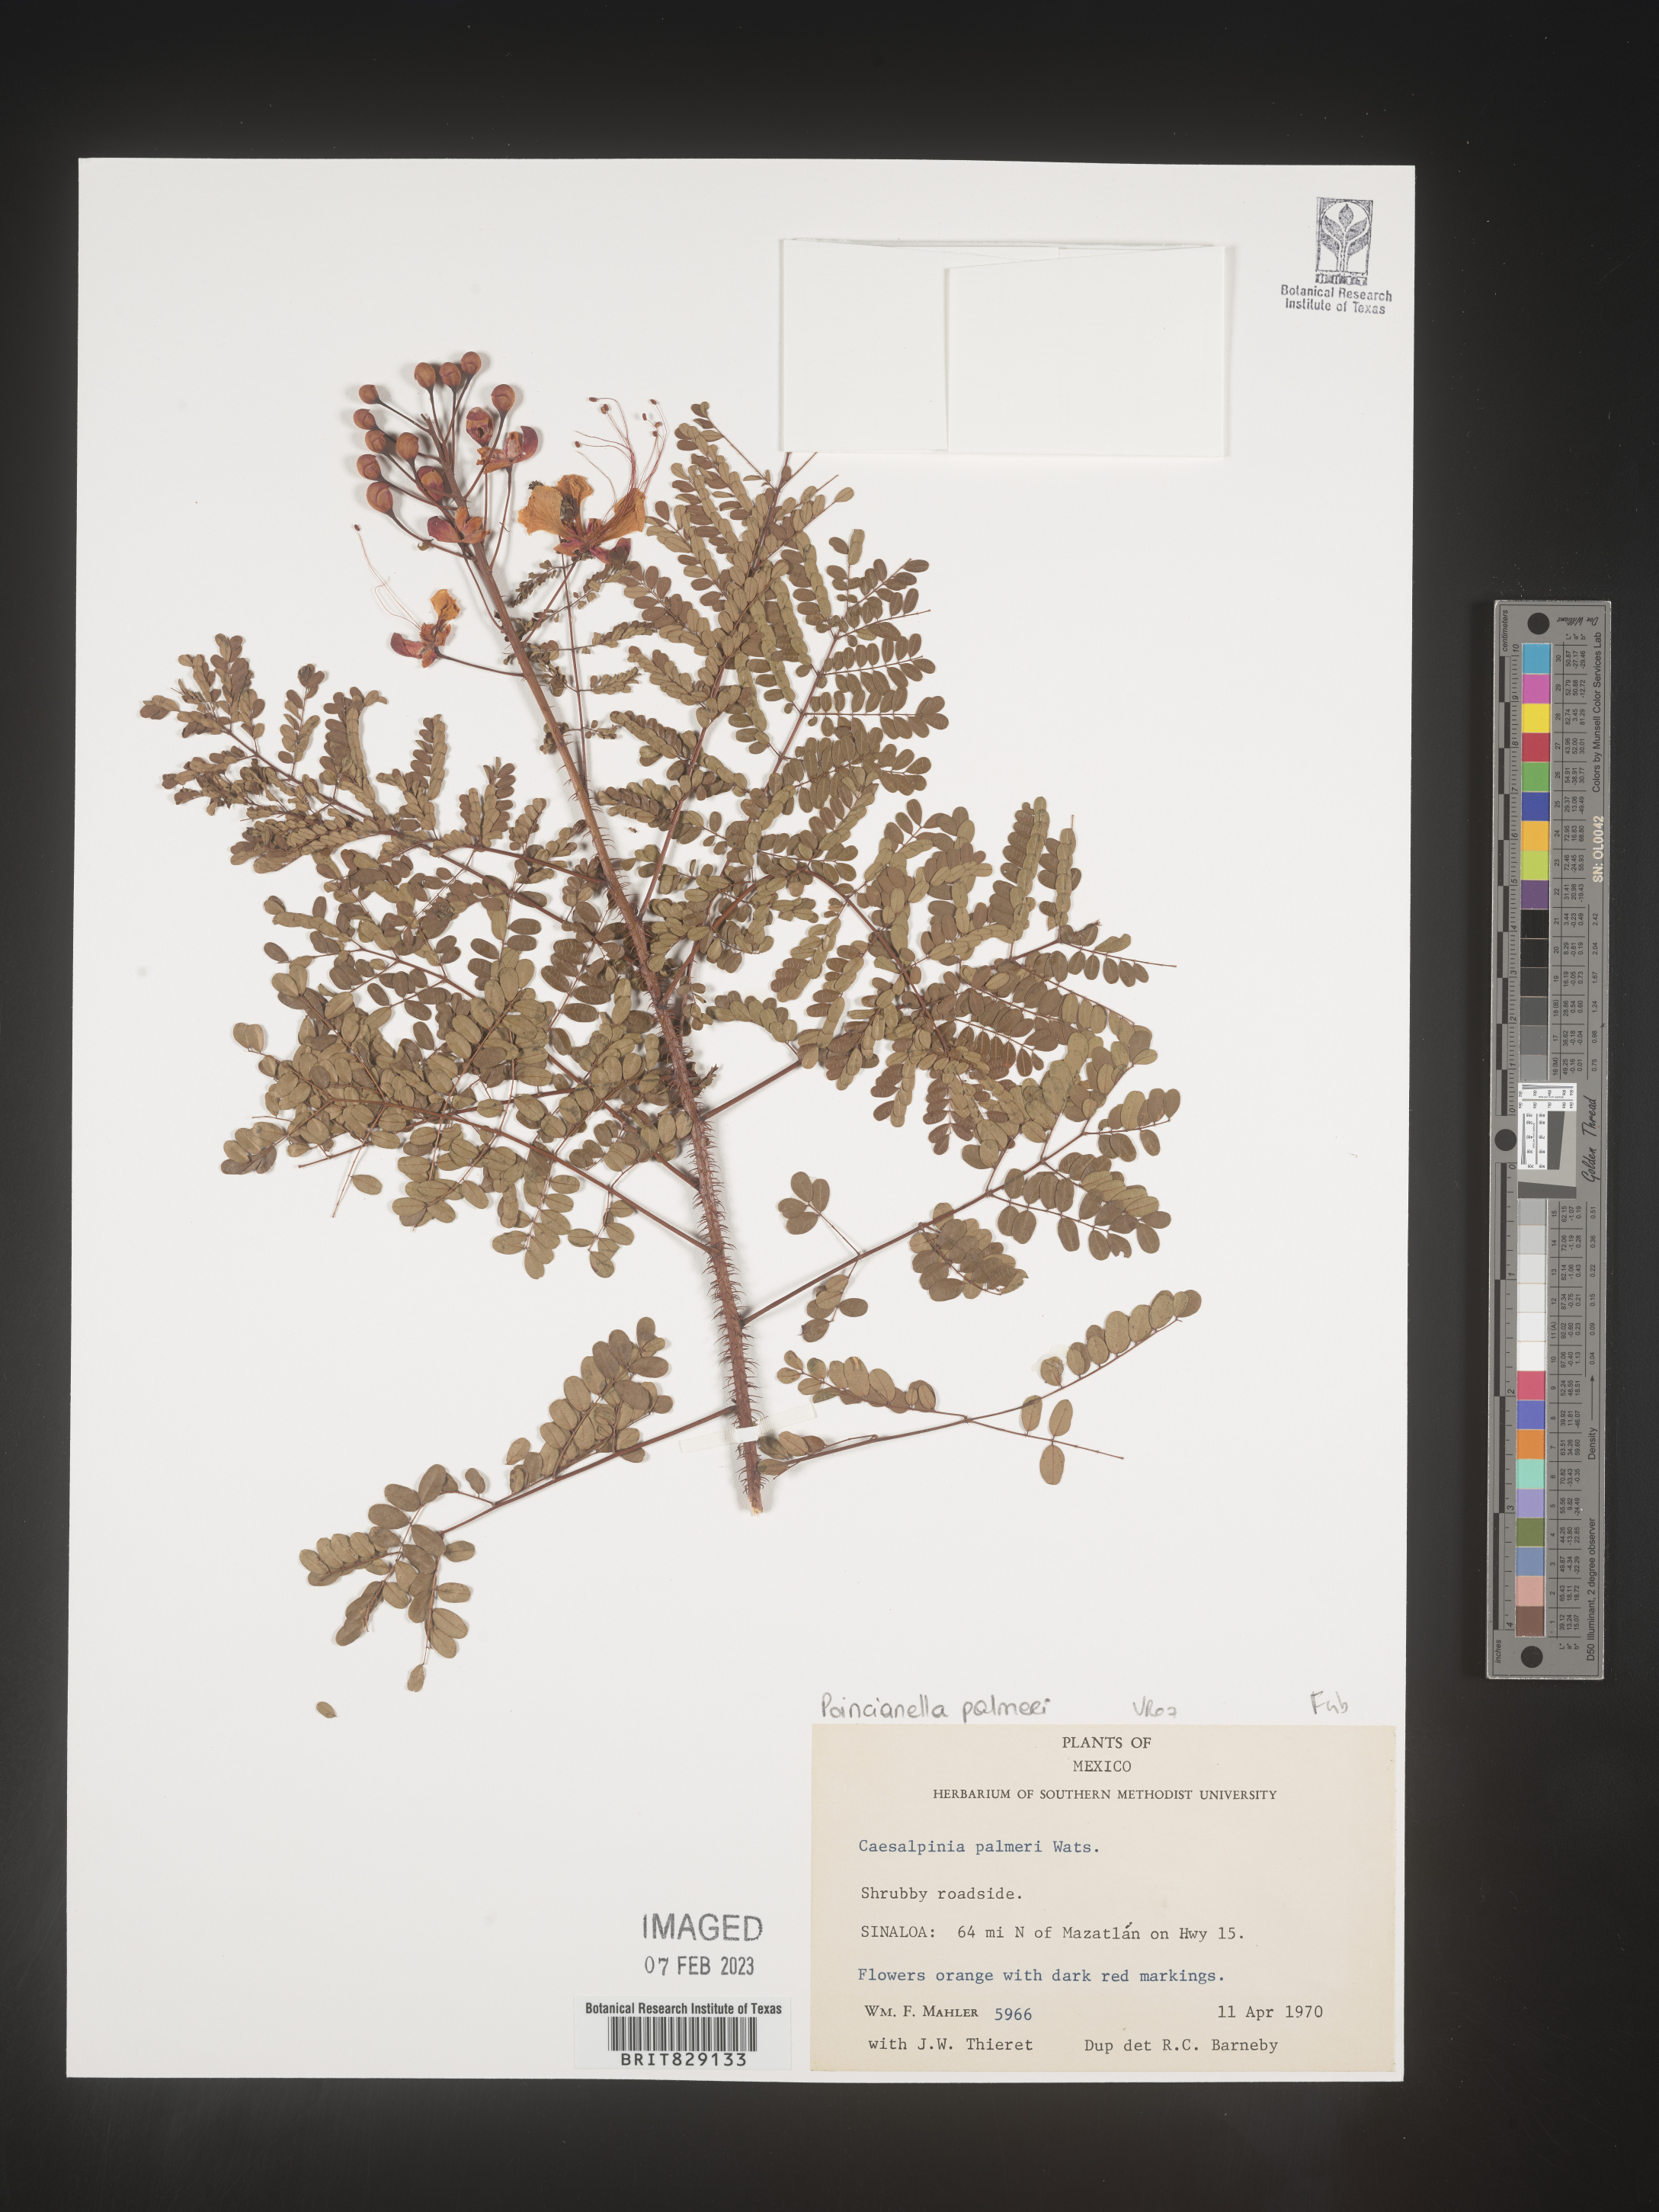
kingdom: Plantae
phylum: Tracheophyta
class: Magnoliopsida
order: Fabales
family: Fabaceae
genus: Caesalpinia
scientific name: Caesalpinia
